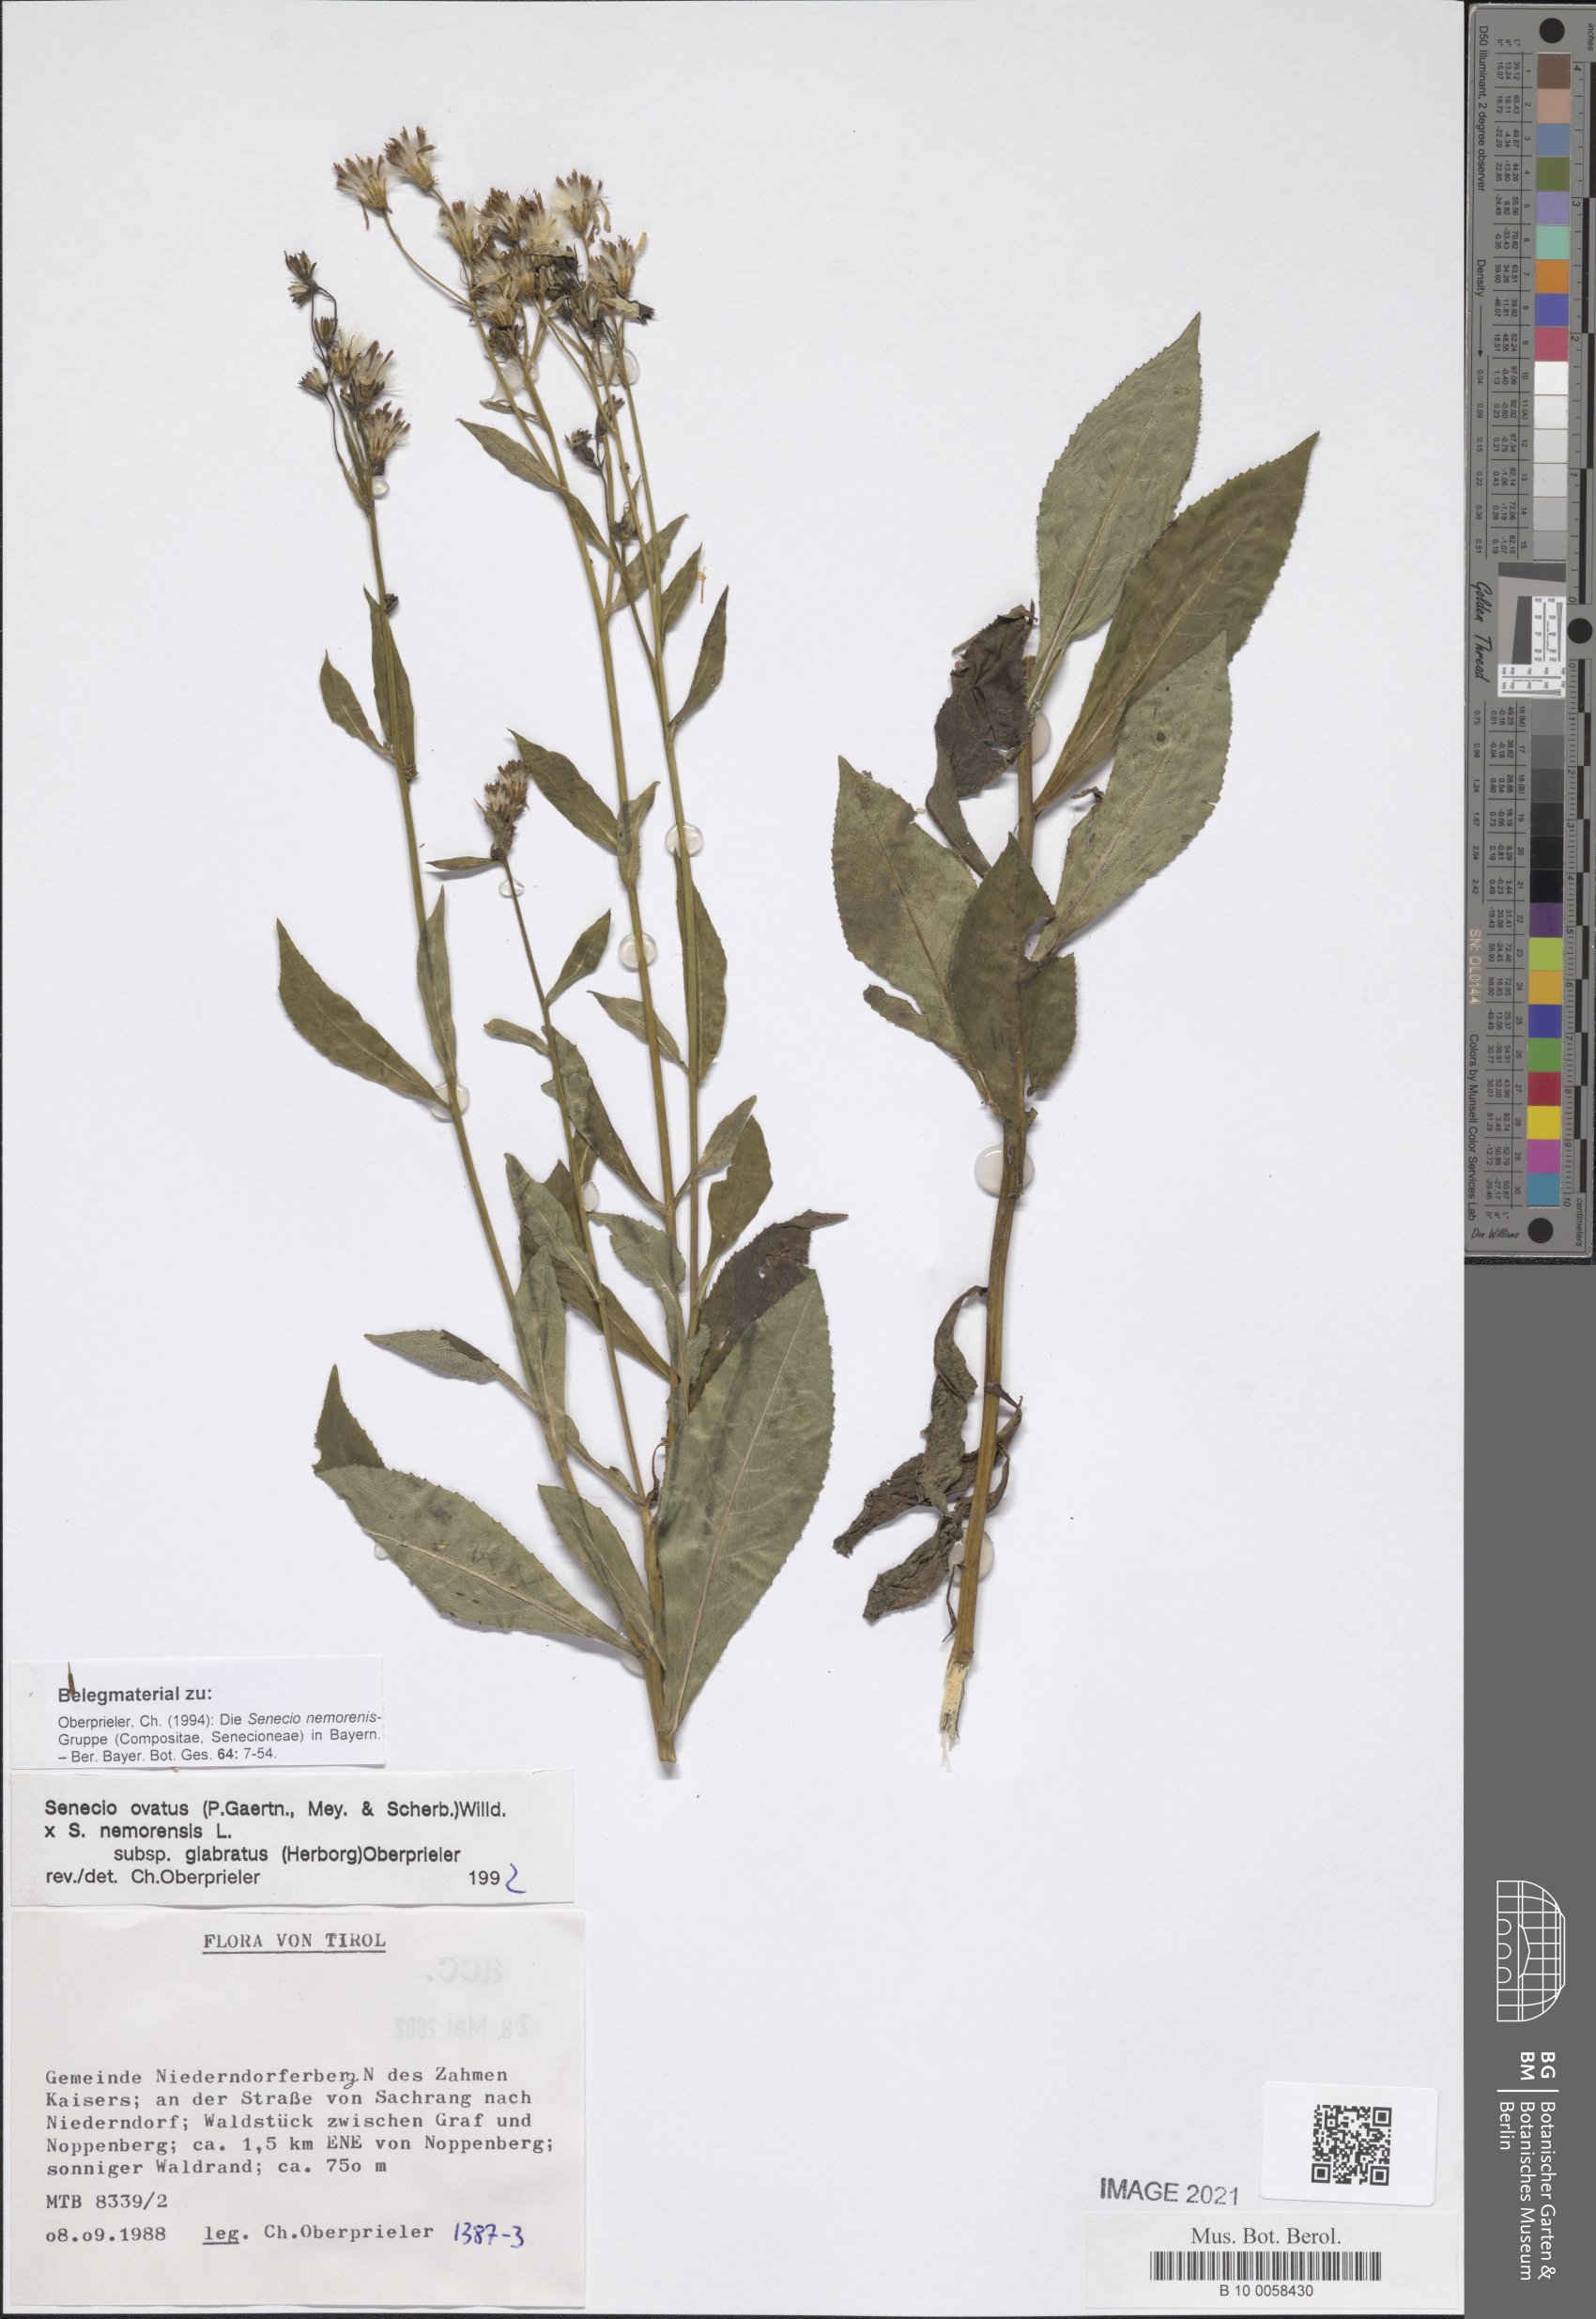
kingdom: Plantae
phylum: Tracheophyta
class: Magnoliopsida
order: Asterales
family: Asteraceae
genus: Senecio
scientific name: Senecio ovatus
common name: Wood ragwort
